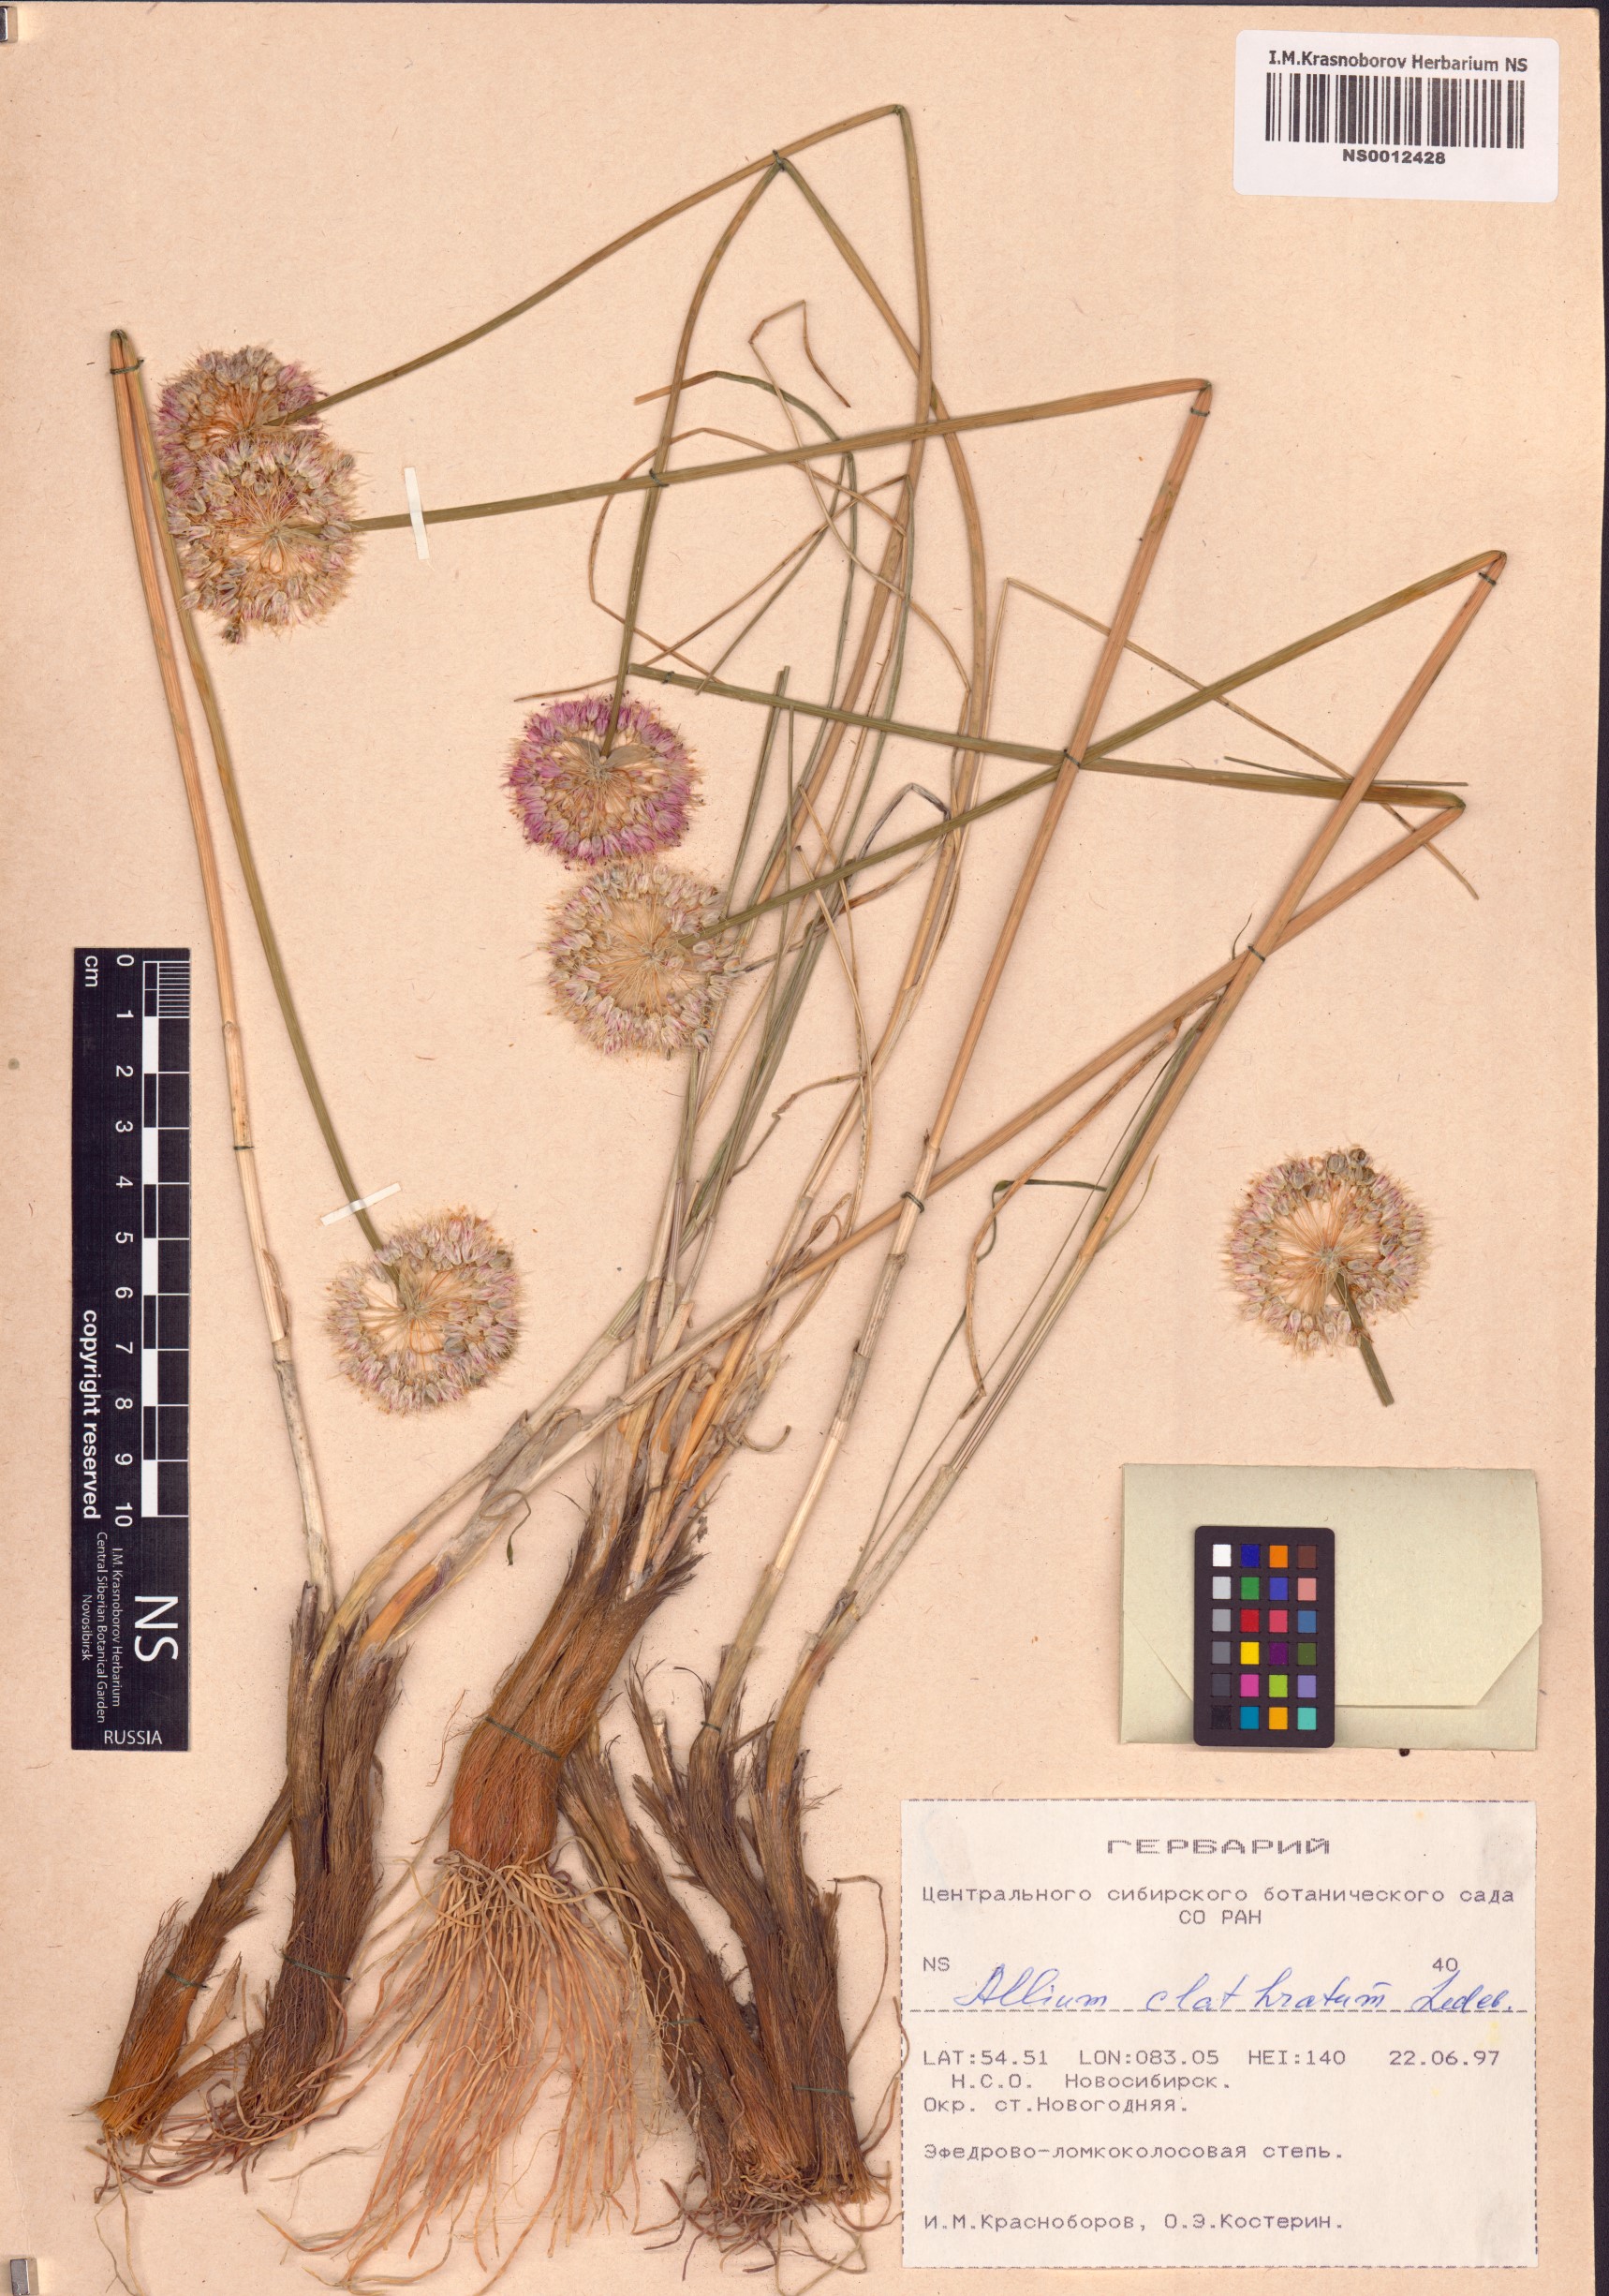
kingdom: Plantae
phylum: Tracheophyta
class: Liliopsida
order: Asparagales
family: Amaryllidaceae
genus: Allium
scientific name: Allium clathratum
